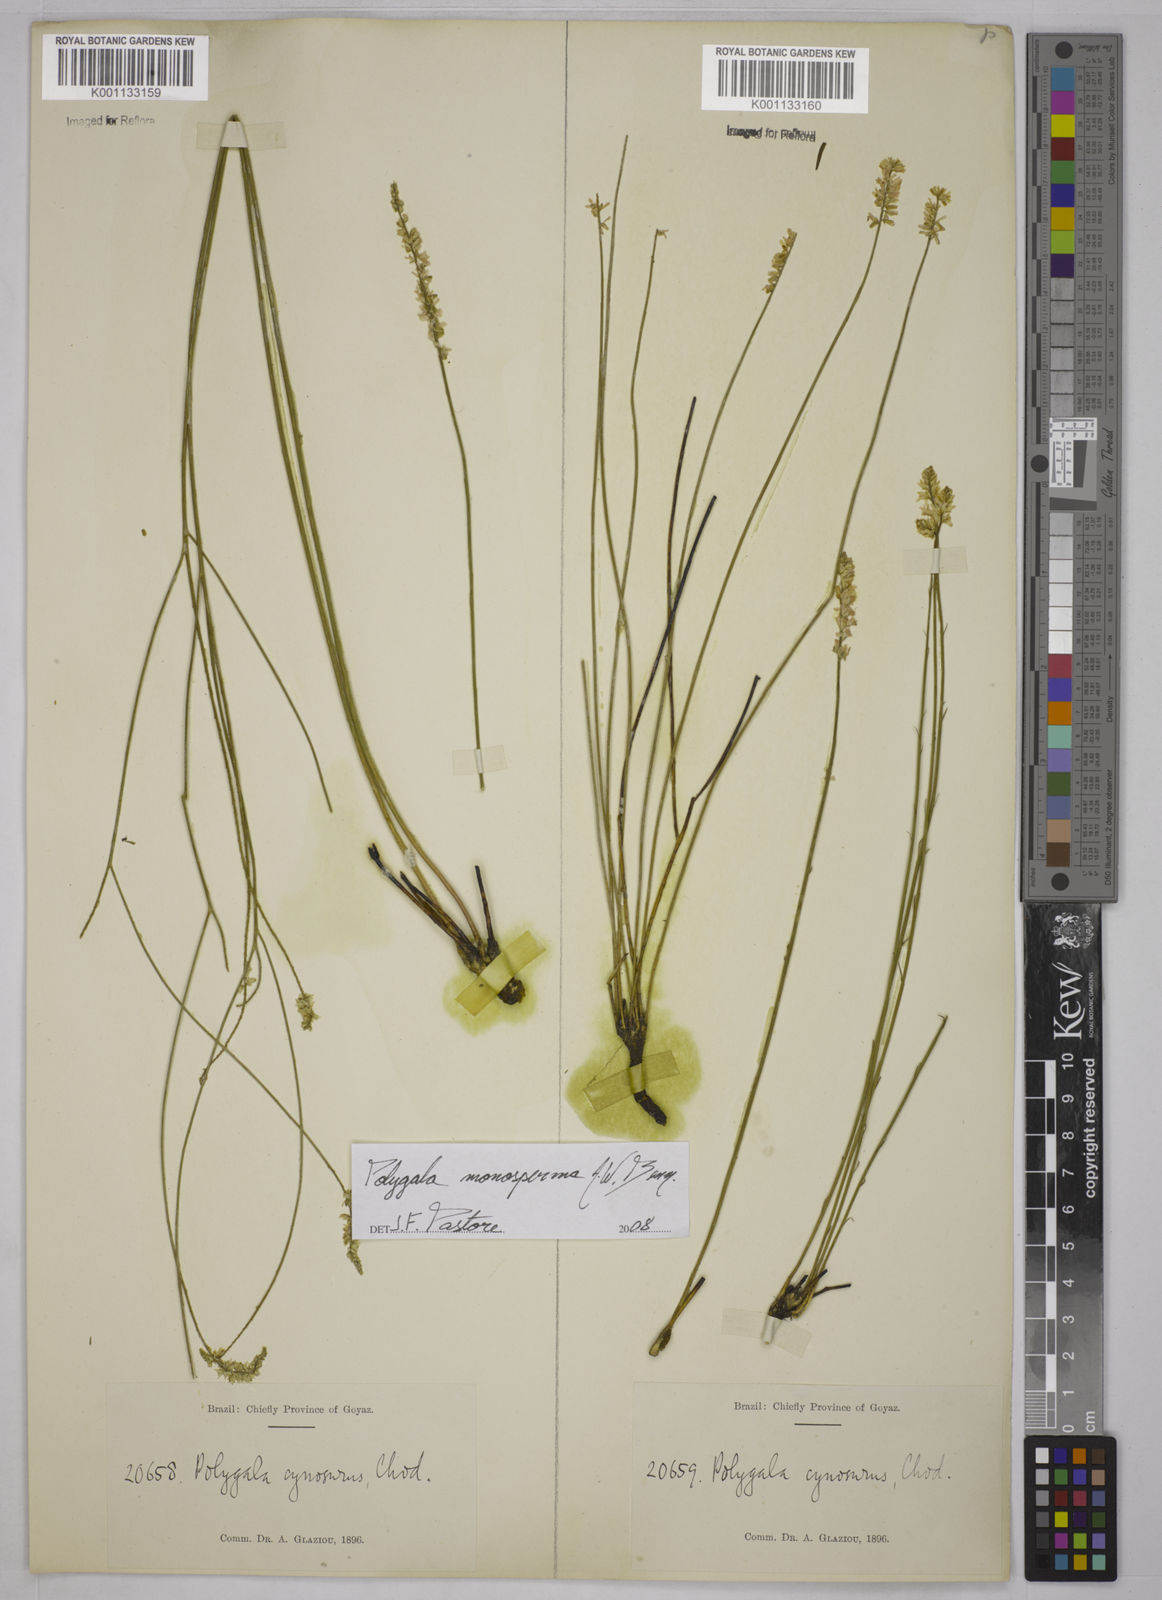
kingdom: Plantae
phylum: Tracheophyta
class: Magnoliopsida
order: Fabales
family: Polygalaceae
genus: Polygala
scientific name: Polygala monosperma
